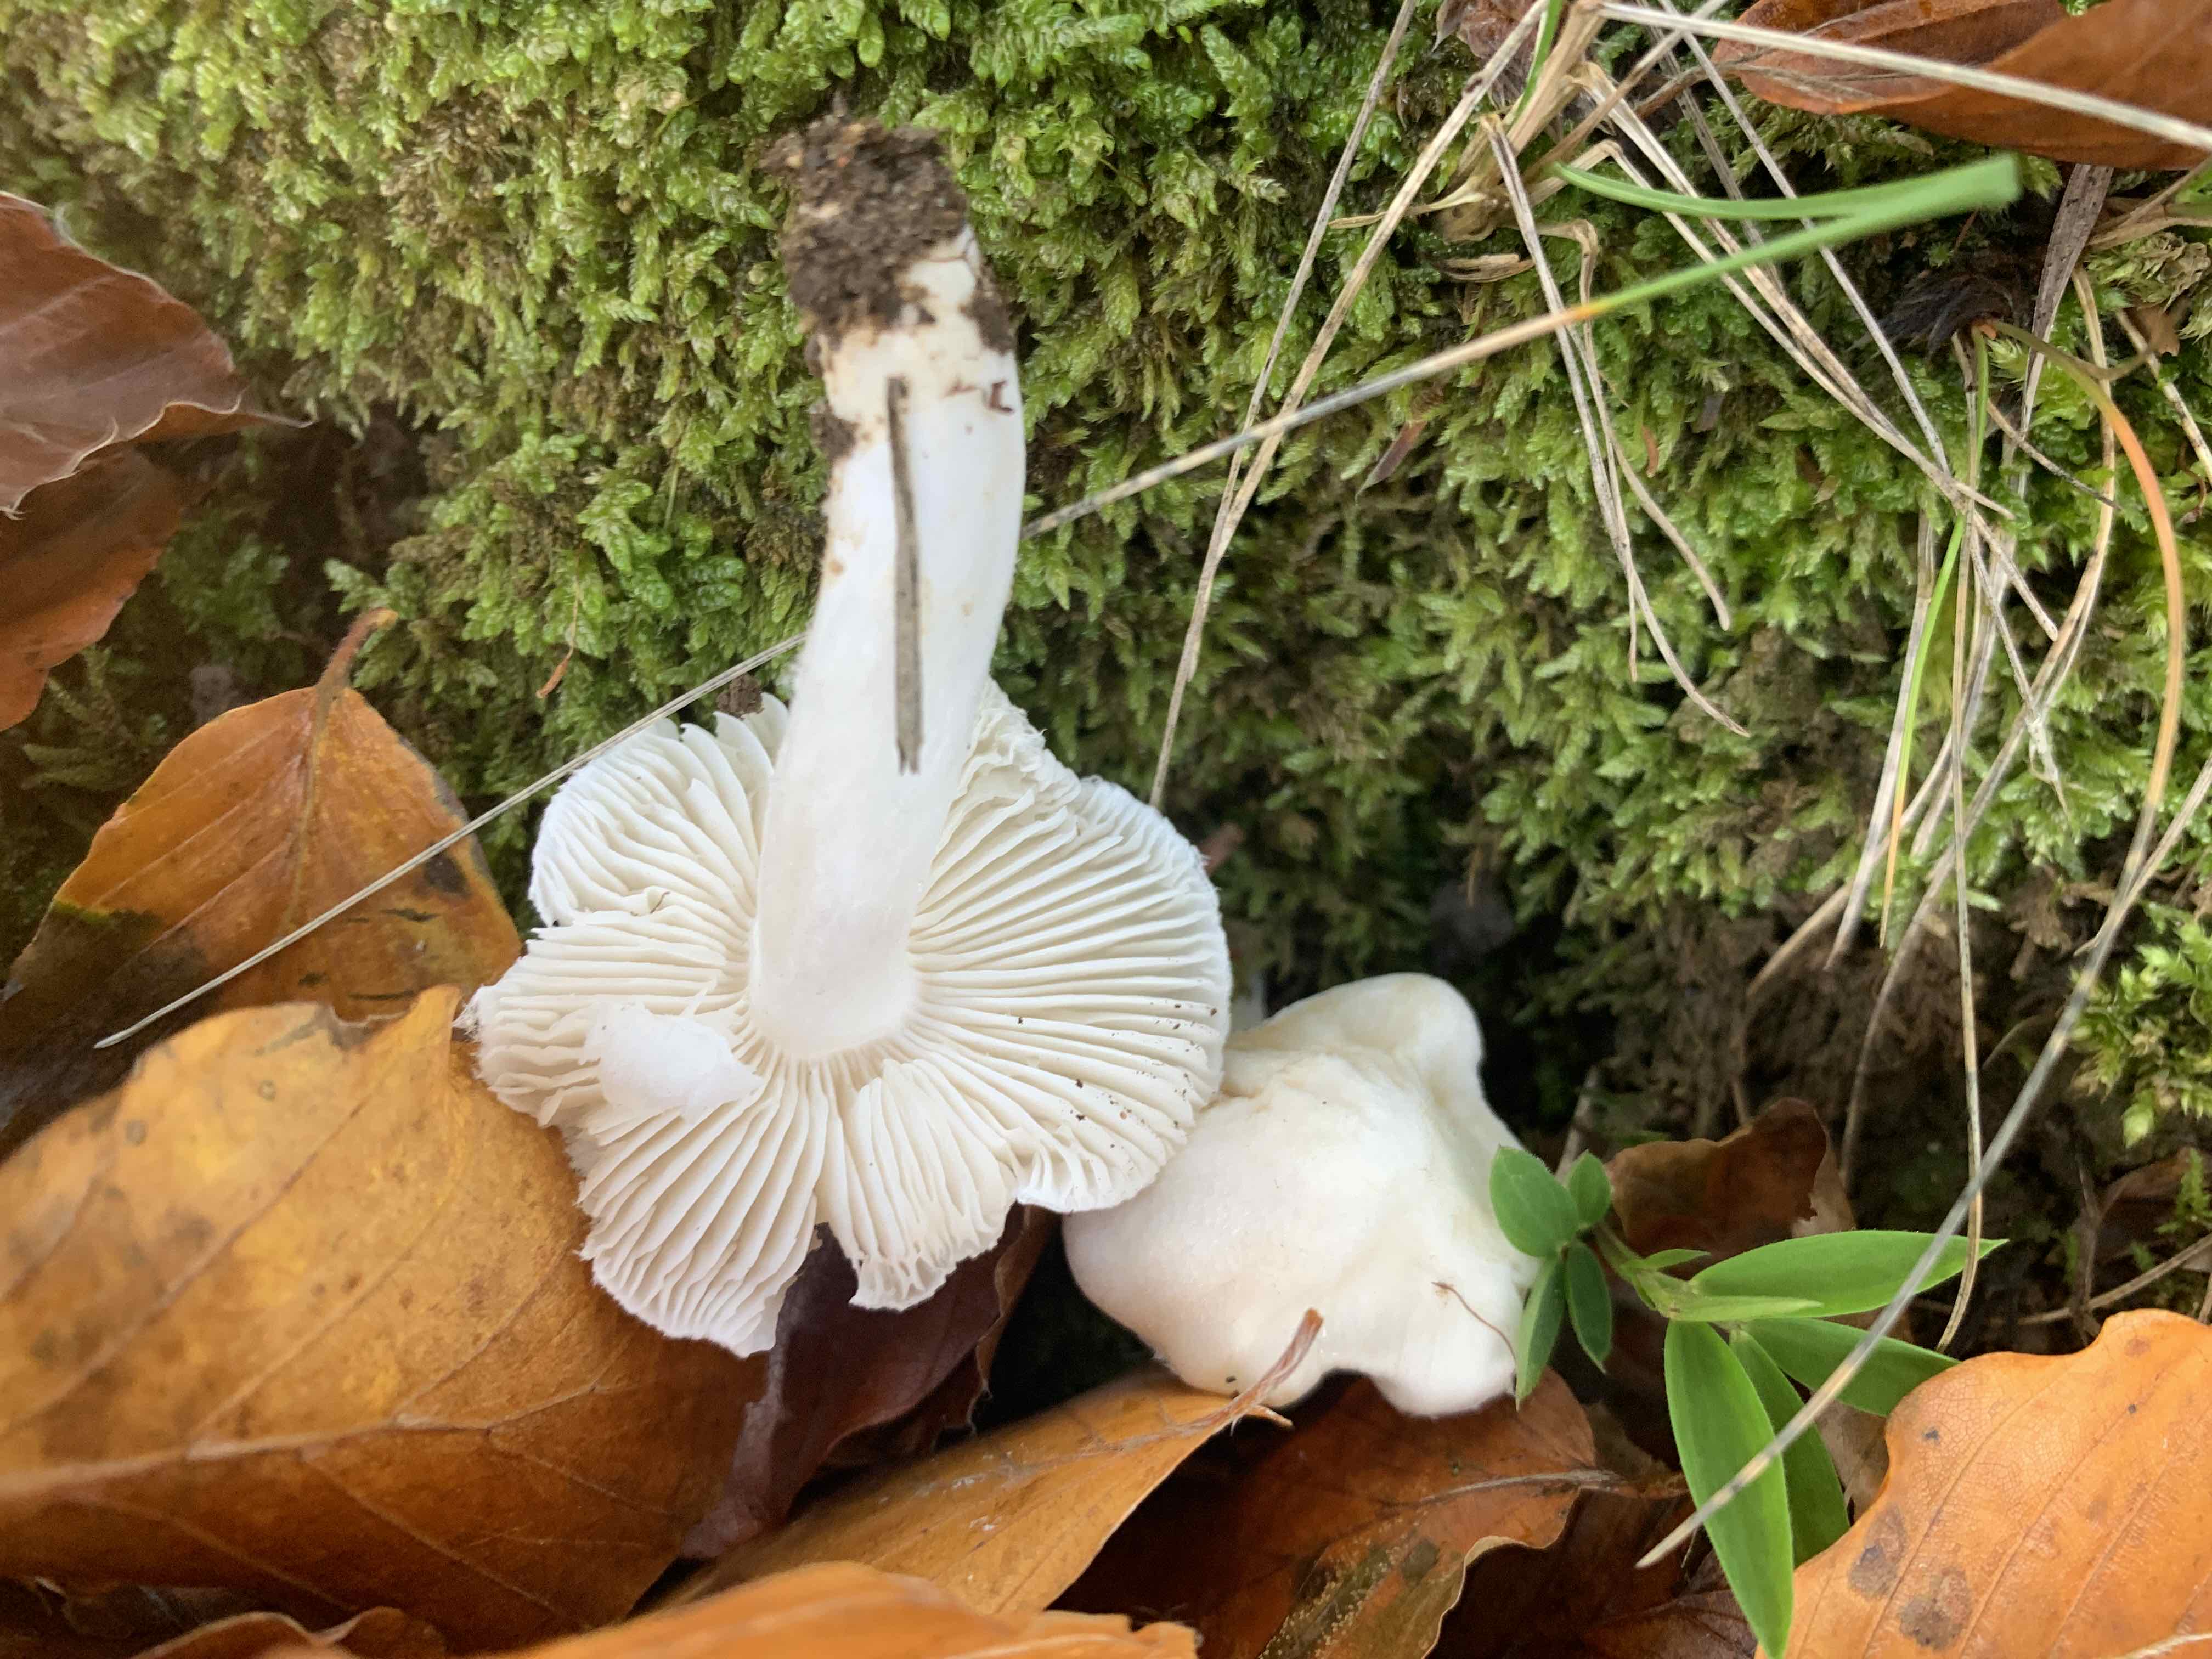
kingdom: Fungi
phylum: Basidiomycota
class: Agaricomycetes
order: Agaricales
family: Tricholomataceae
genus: Tricholoma
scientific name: Tricholoma columbetta
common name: silke-ridderhat
